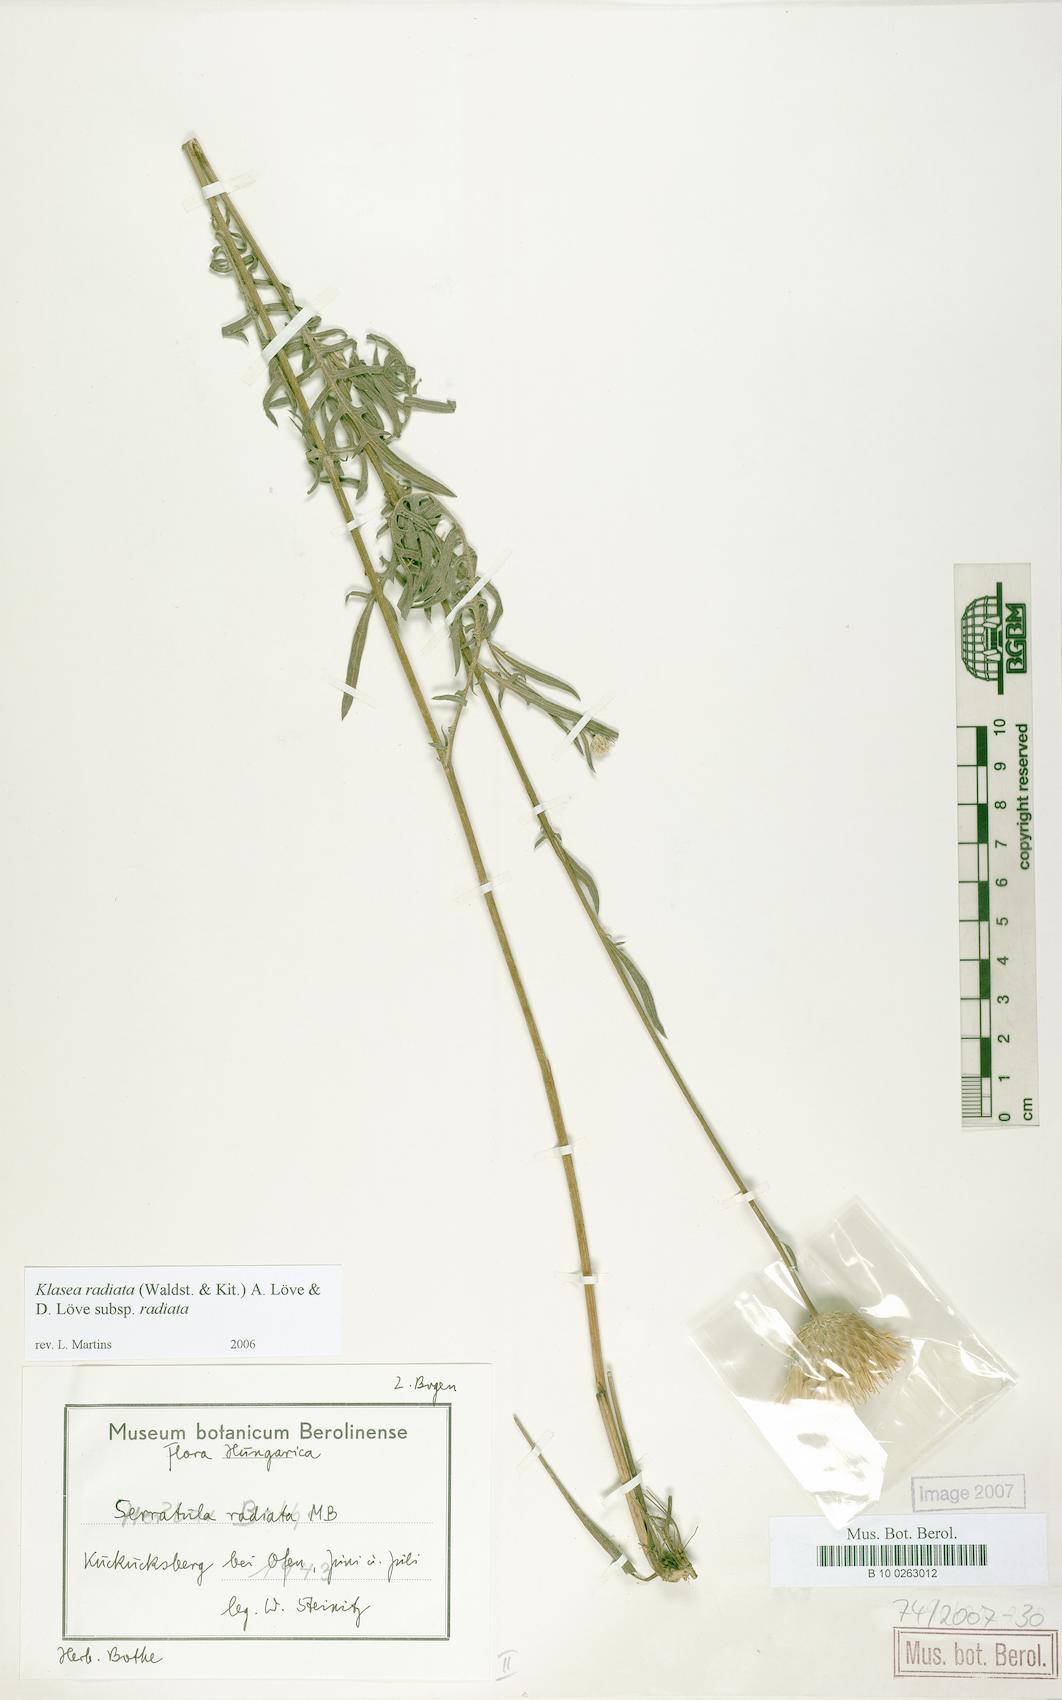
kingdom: Plantae
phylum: Tracheophyta
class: Magnoliopsida
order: Asterales
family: Asteraceae
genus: Klasea
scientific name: Klasea radiata
